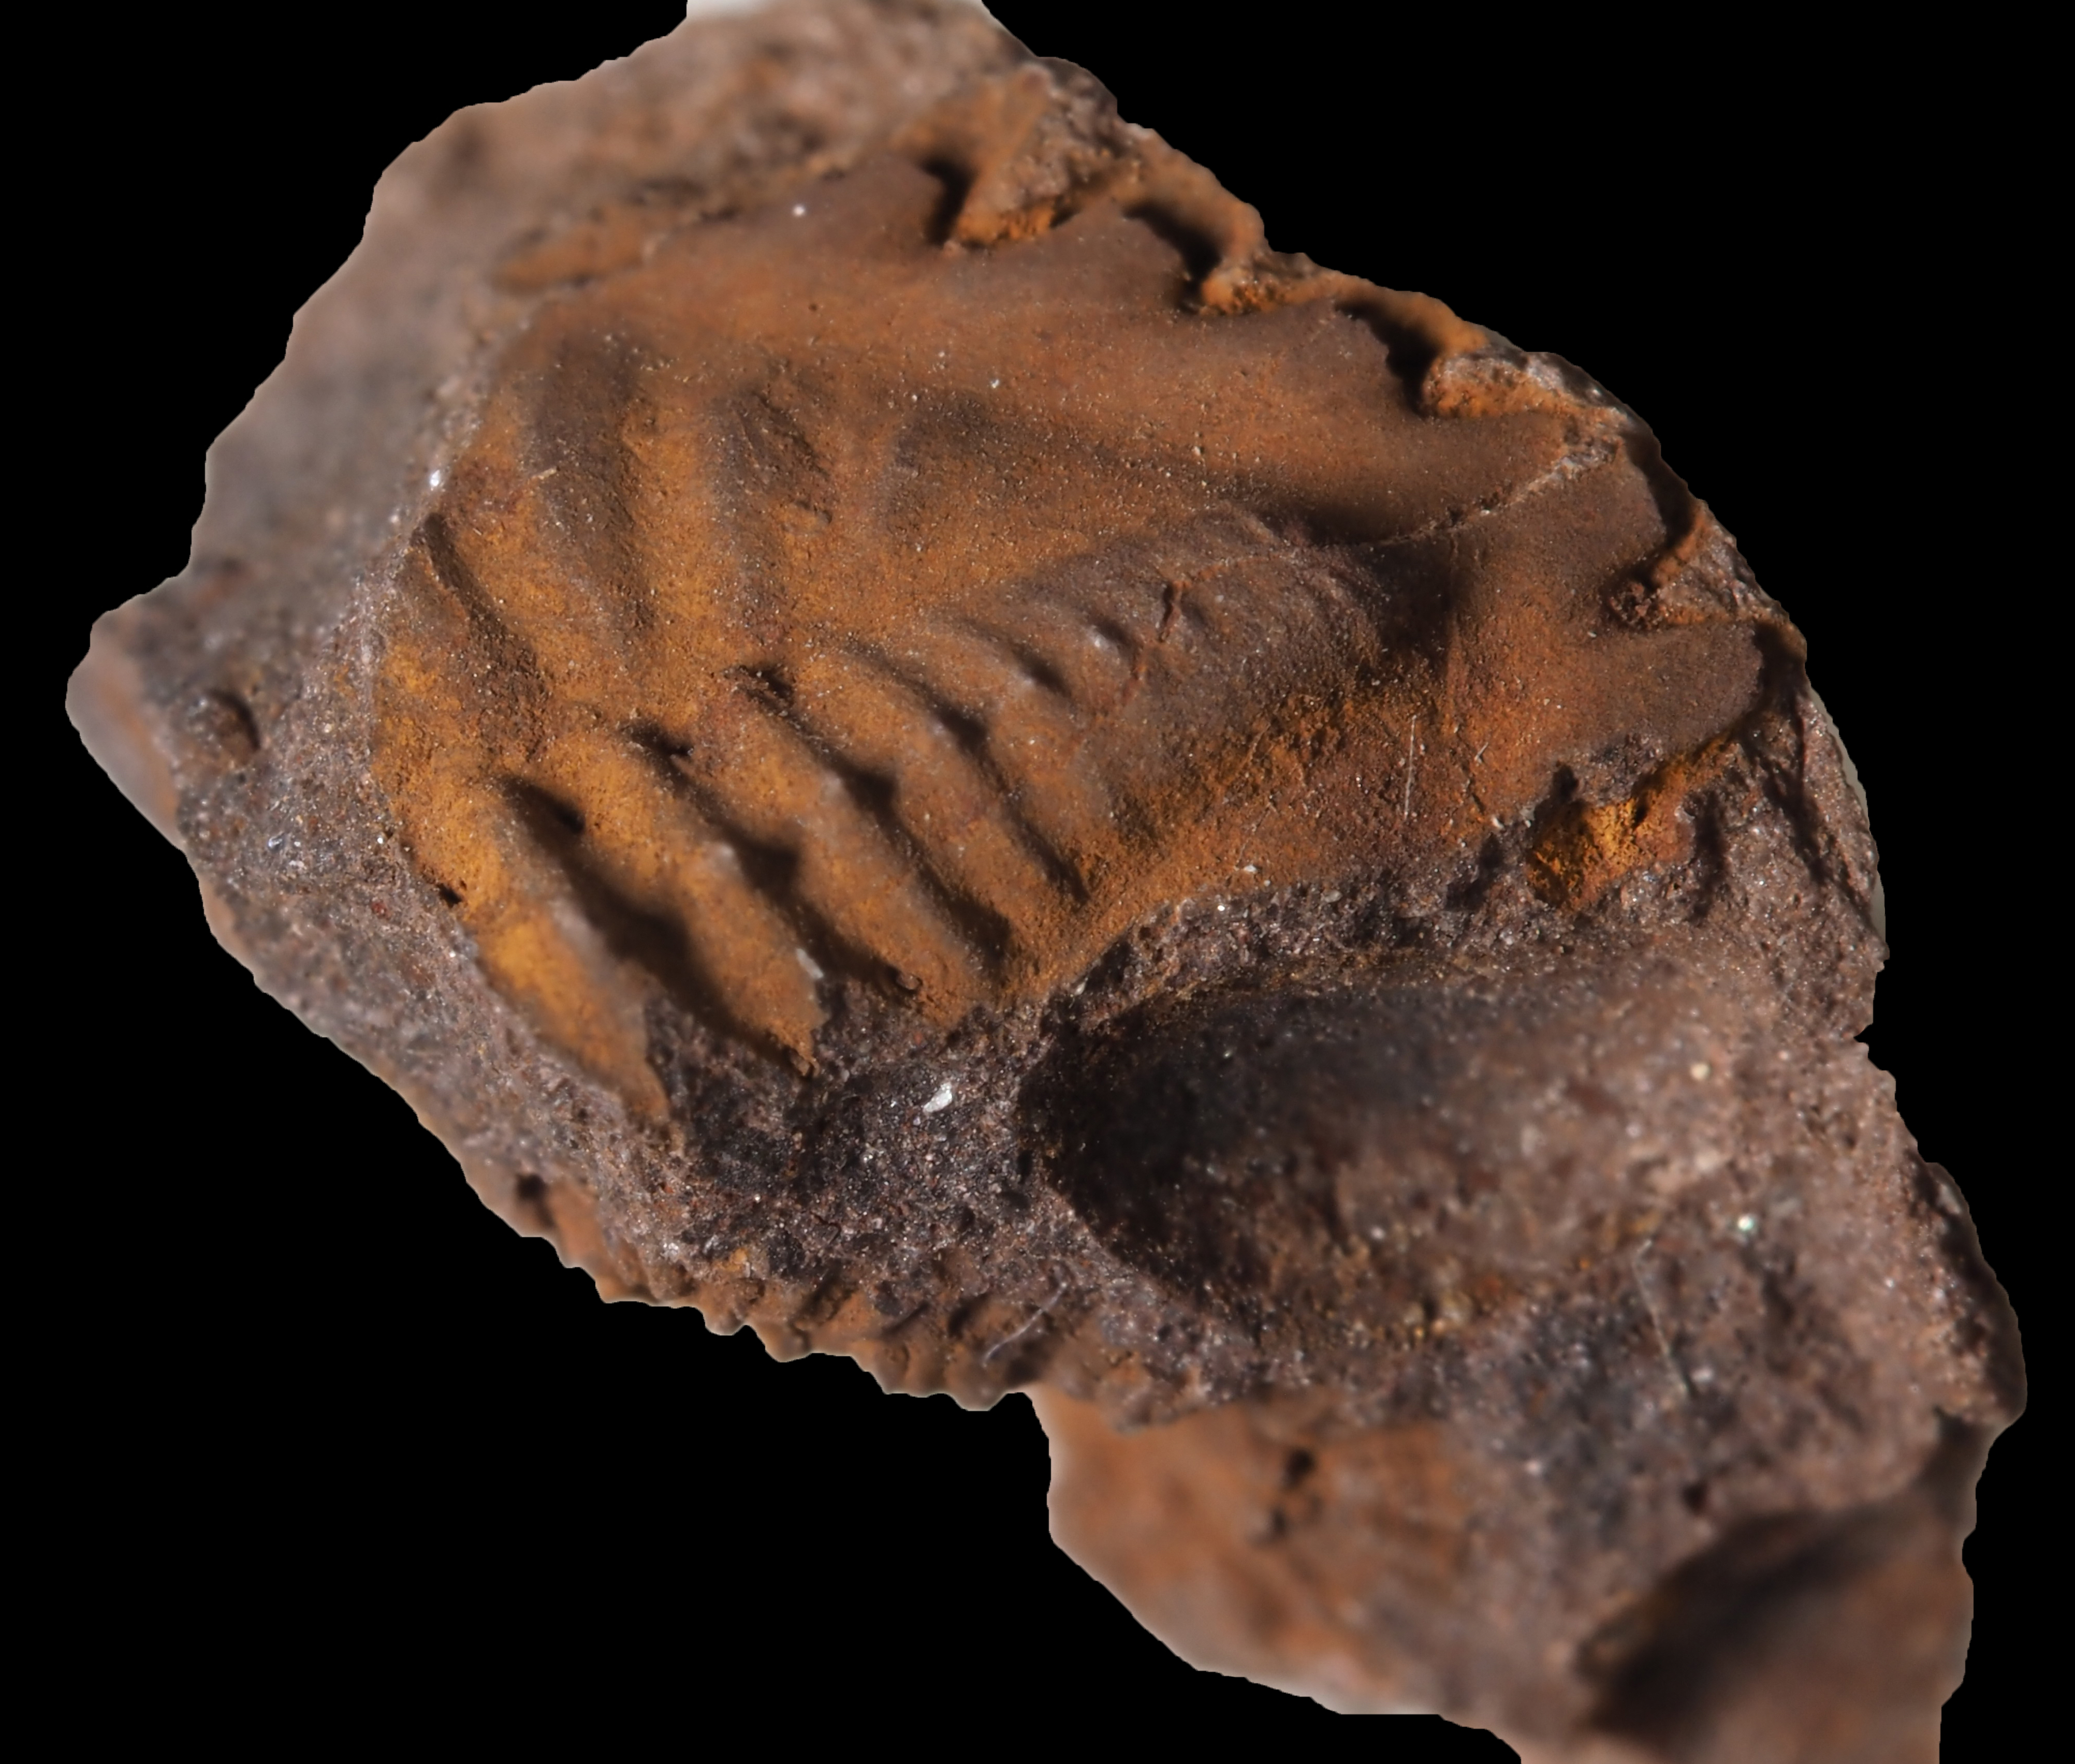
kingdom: Animalia
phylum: Arthropoda
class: Trilobita
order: Phacopida
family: Acastidae
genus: Rhenops
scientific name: Rhenops australocustos
